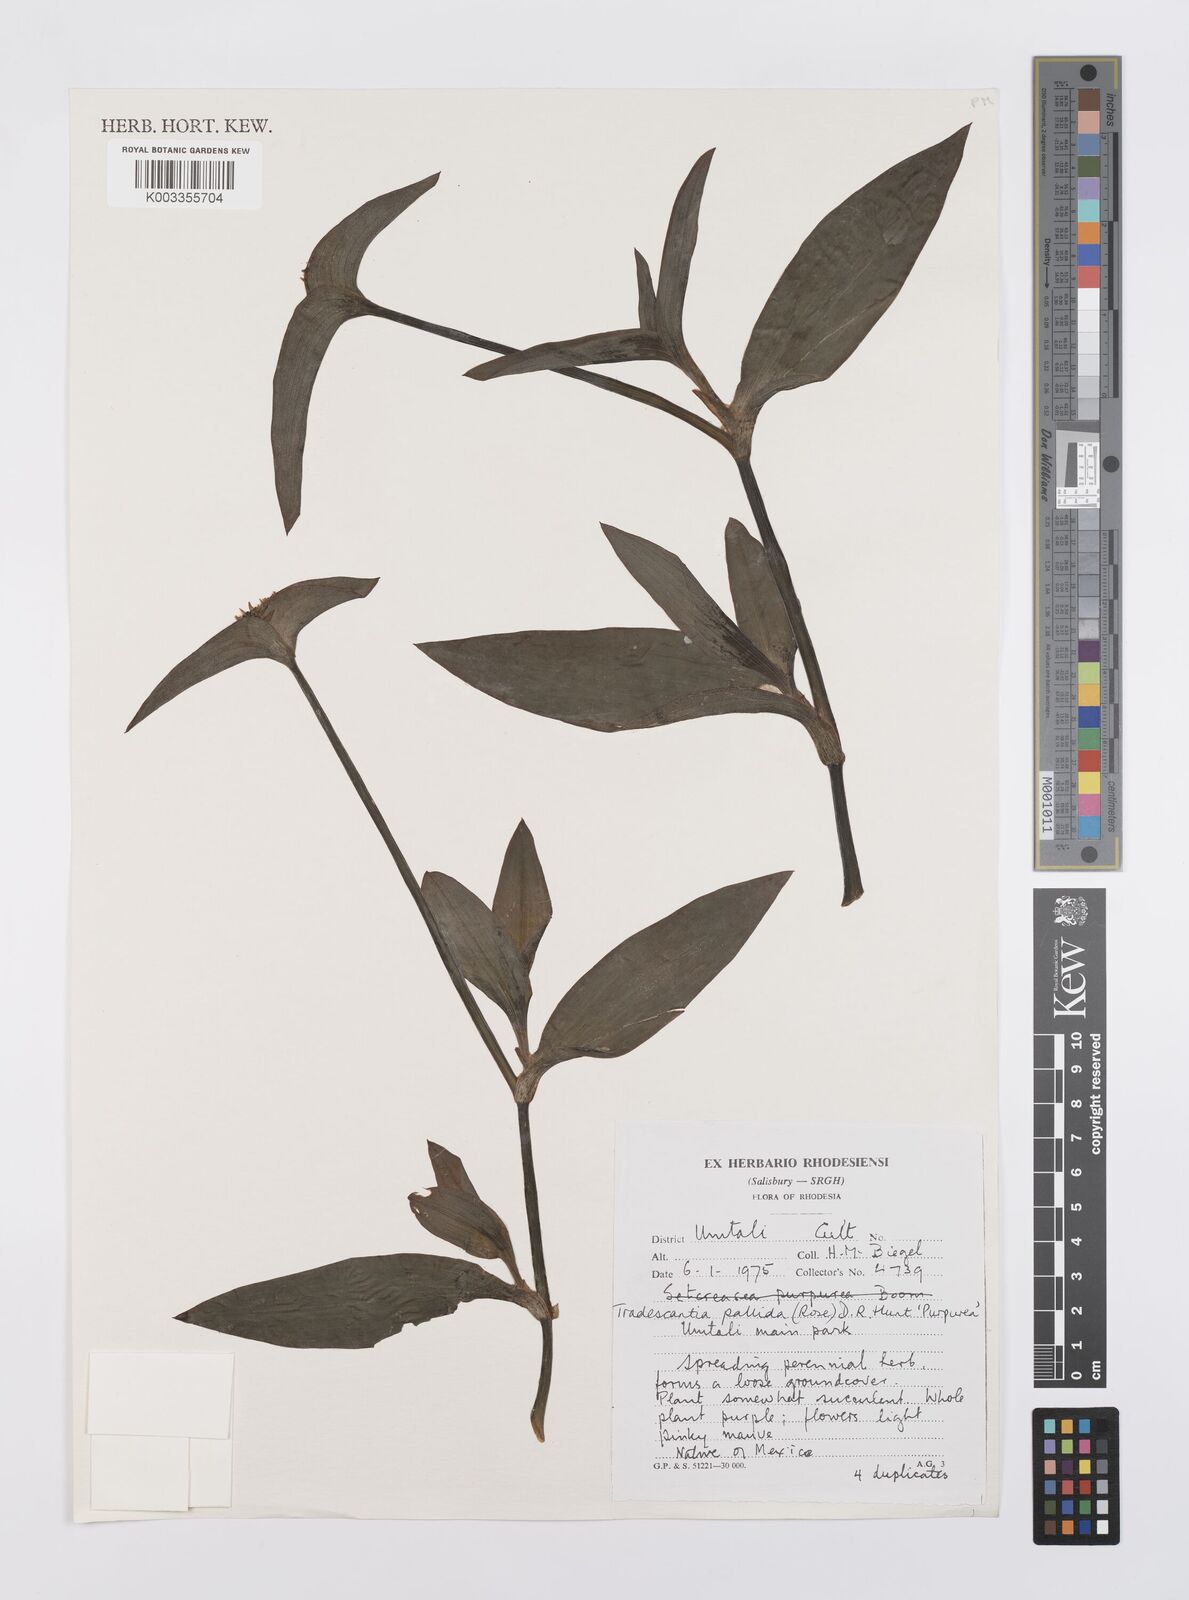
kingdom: Plantae
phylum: Tracheophyta
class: Liliopsida
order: Commelinales
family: Commelinaceae
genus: Tradescantia
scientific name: Tradescantia pallida
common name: Purpleheart
